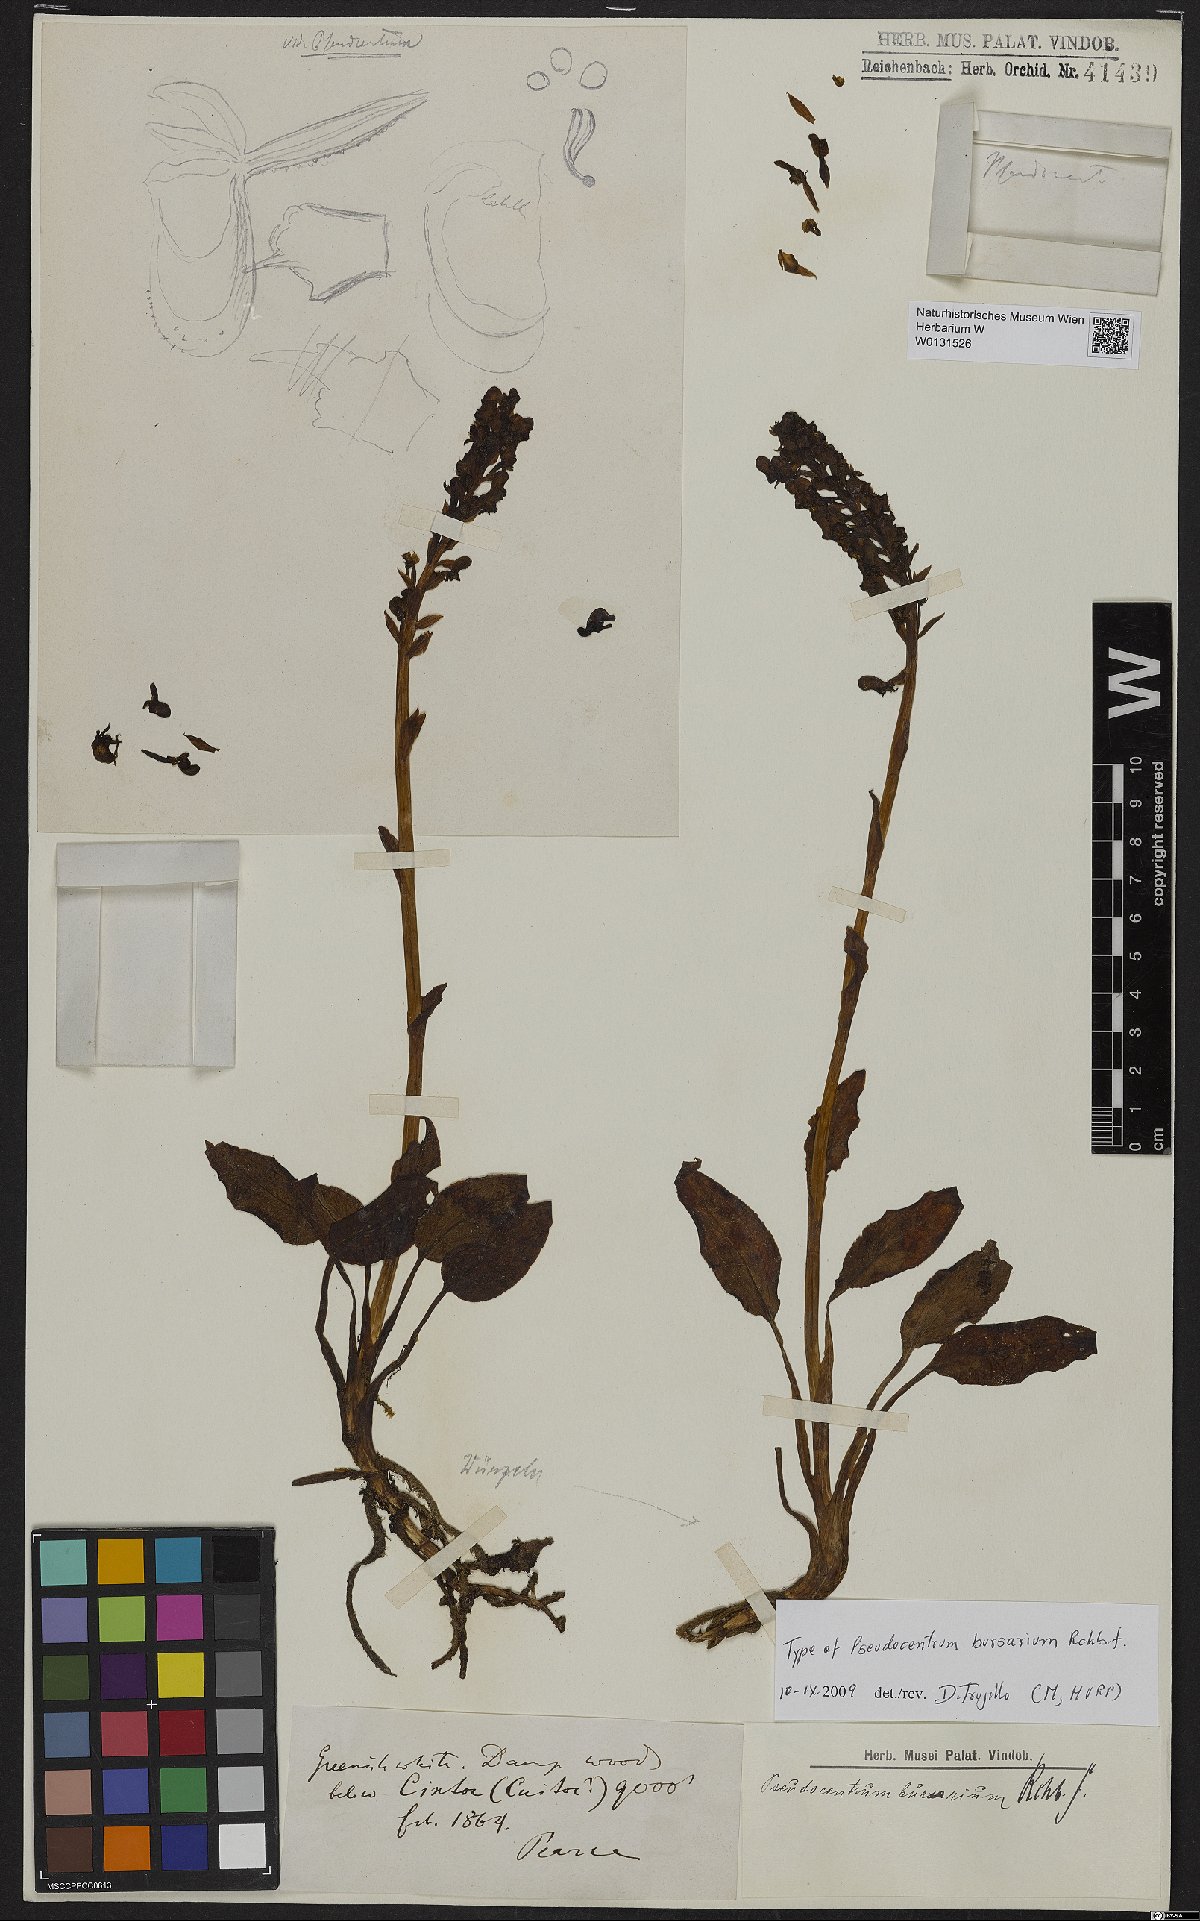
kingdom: Plantae
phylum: Tracheophyta
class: Liliopsida
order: Asparagales
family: Orchidaceae
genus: Pseudocentrum
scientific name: Pseudocentrum bursarium
